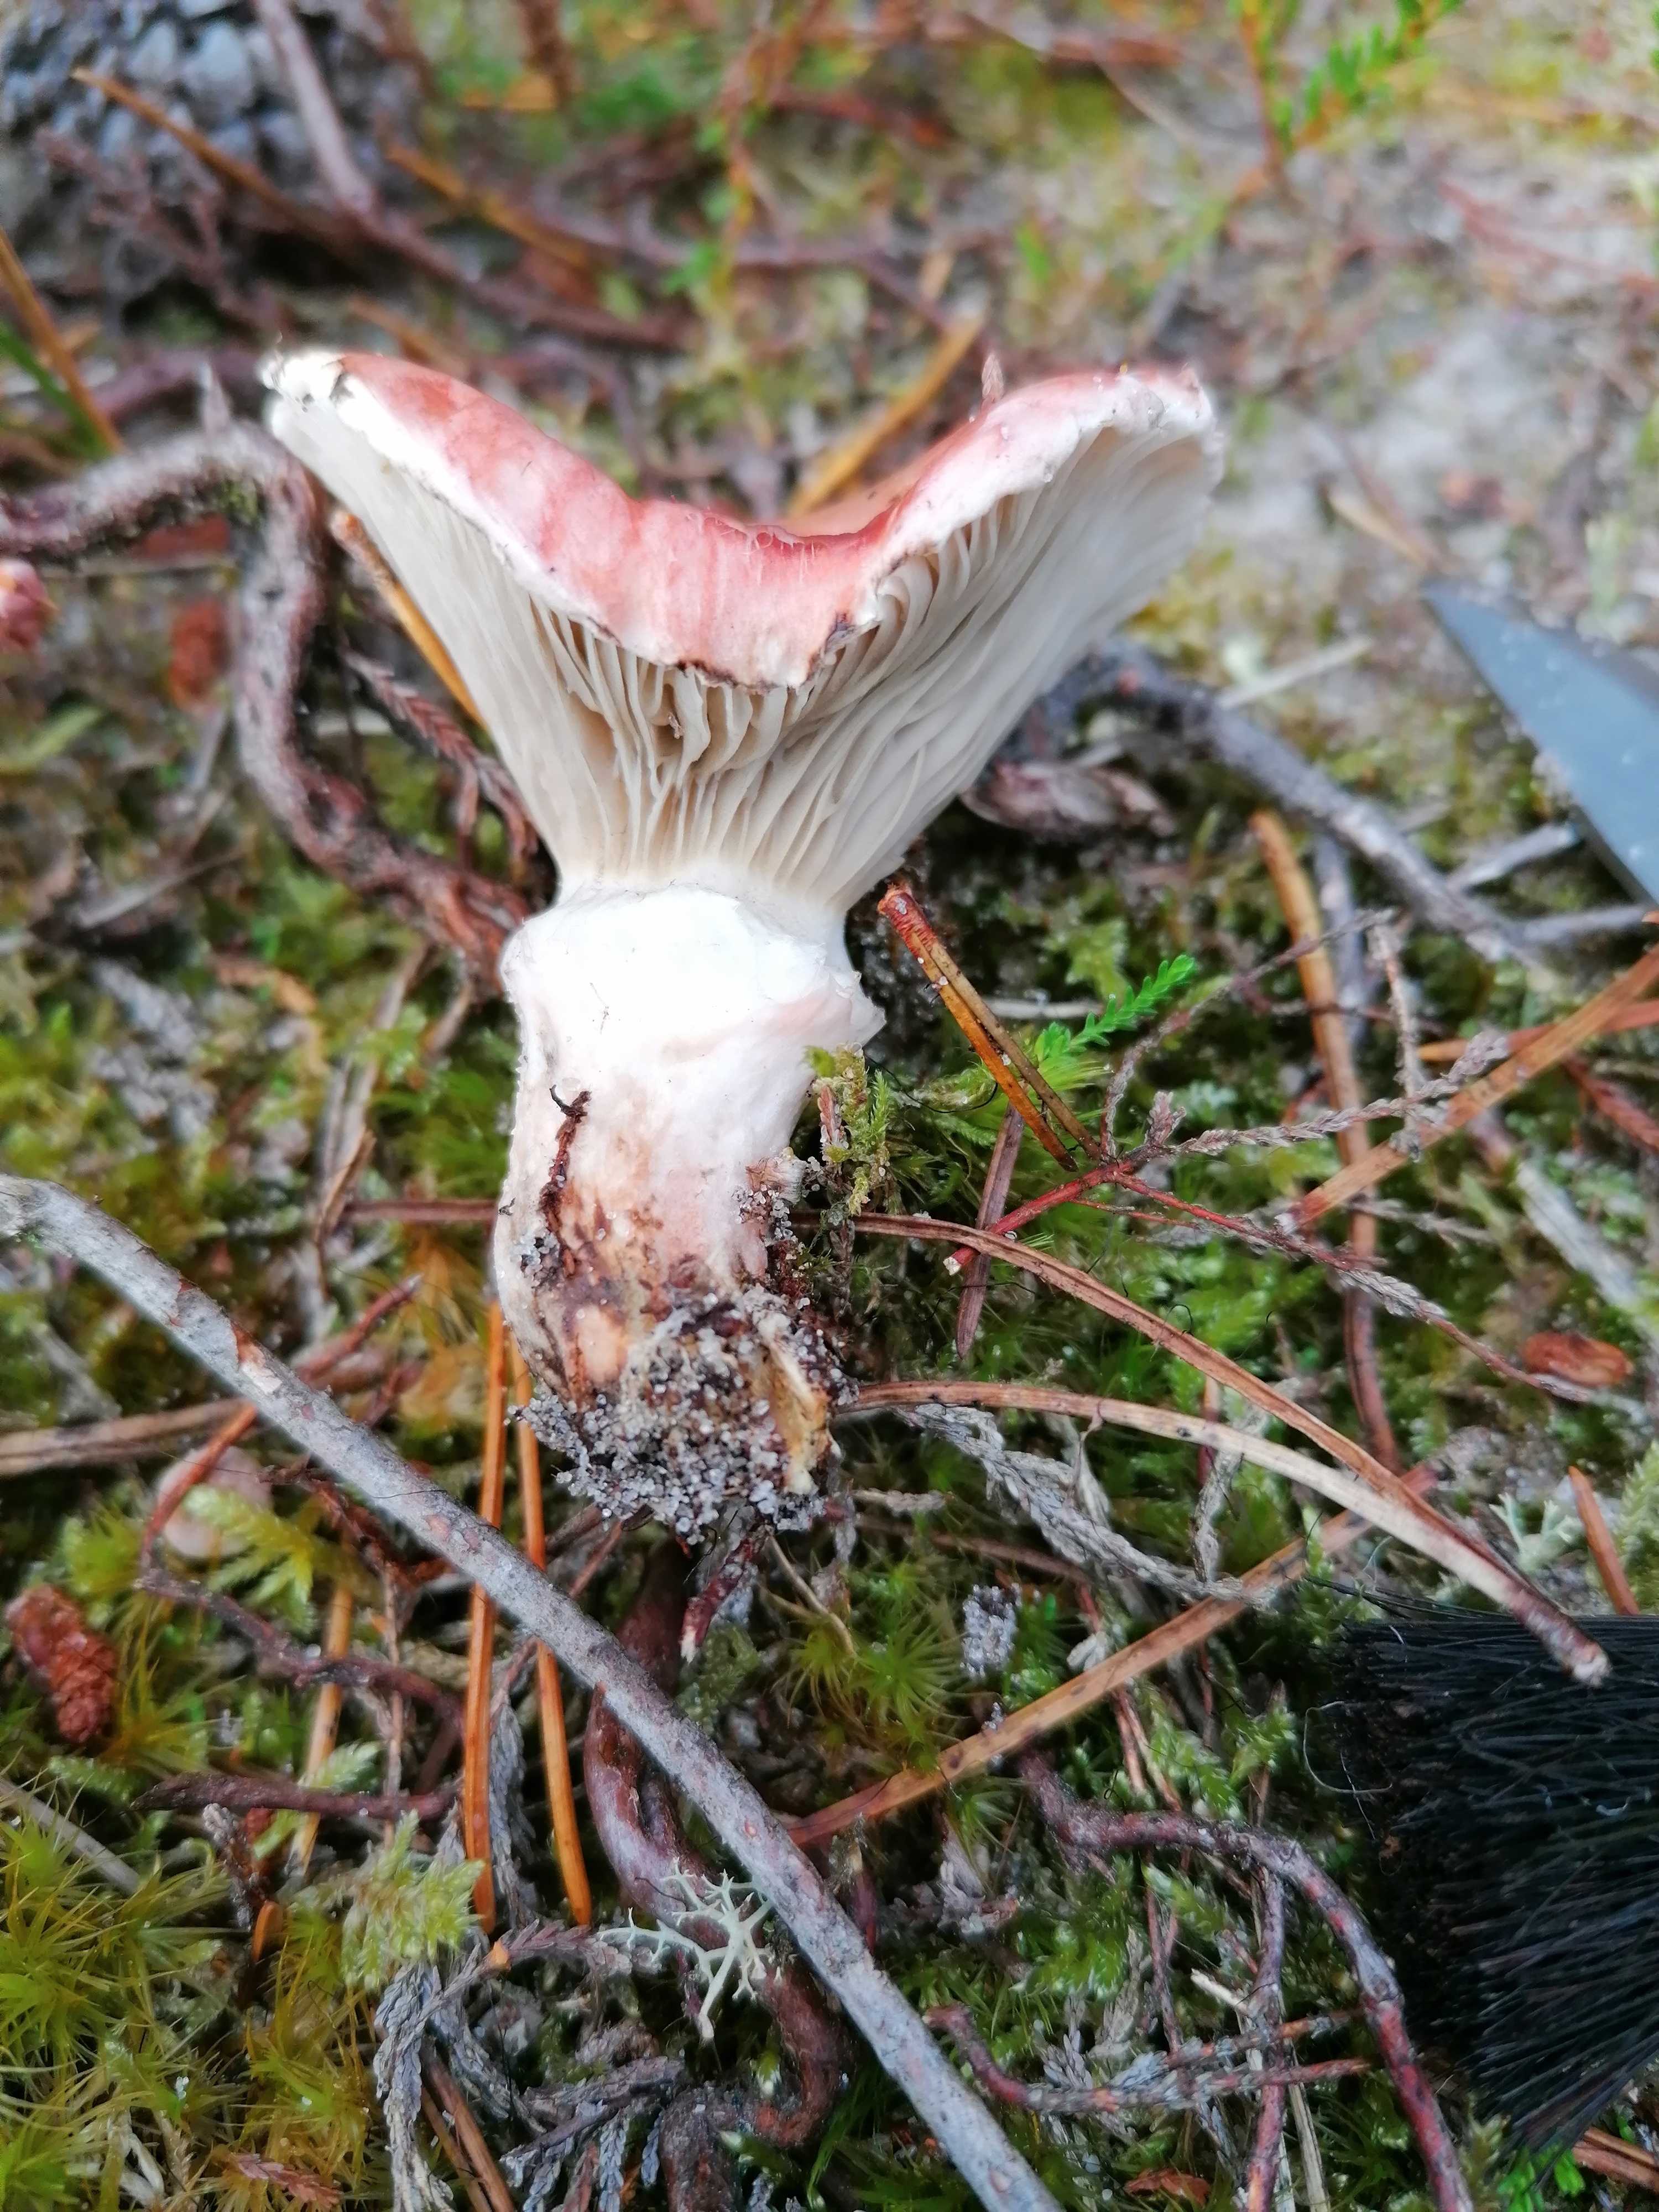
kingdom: Fungi
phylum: Basidiomycota
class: Agaricomycetes
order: Boletales
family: Gomphidiaceae
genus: Gomphidius
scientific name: Gomphidius roseus
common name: rosenrød slimslør
